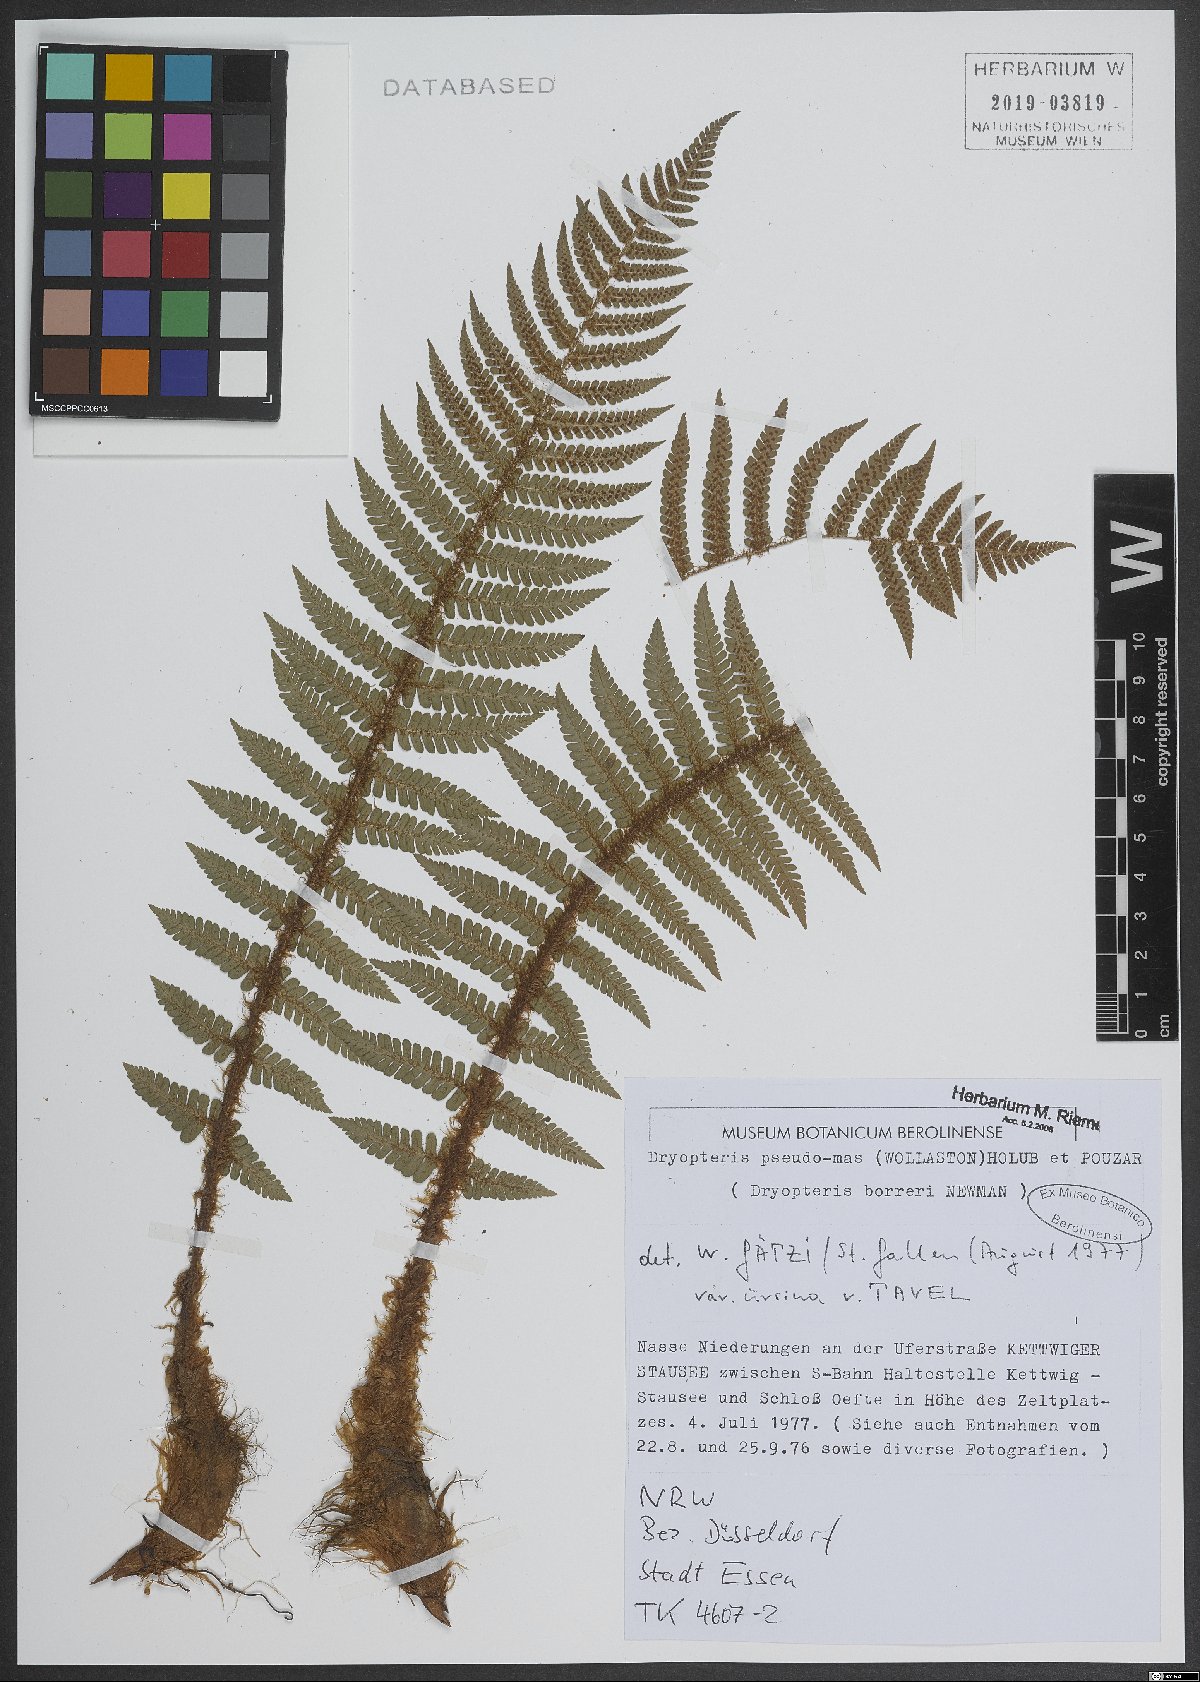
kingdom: Plantae
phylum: Tracheophyta
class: Polypodiopsida
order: Polypodiales
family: Dryopteridaceae
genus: Dryopteris
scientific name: Dryopteris affinis
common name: Scaly male fern
